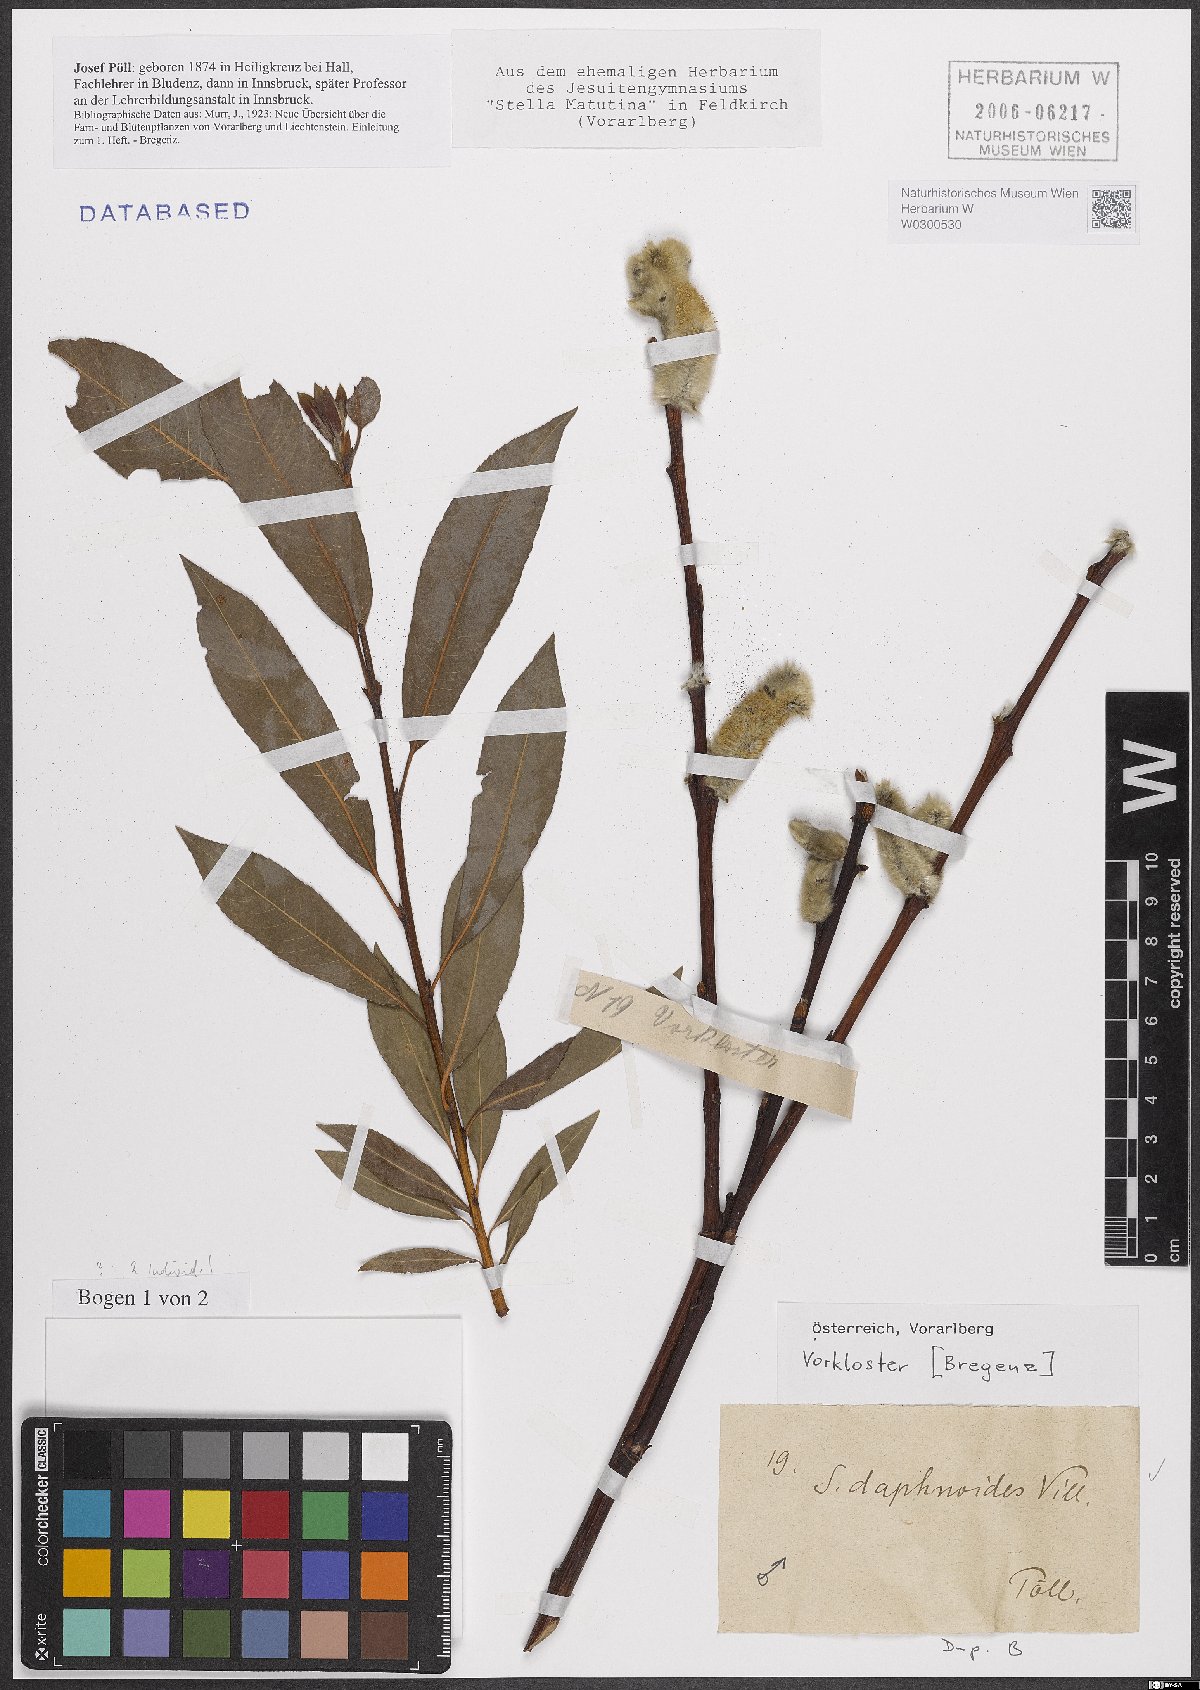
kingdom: Plantae
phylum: Tracheophyta
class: Magnoliopsida
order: Malpighiales
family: Salicaceae
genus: Salix
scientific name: Salix daphnoides
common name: European violet-willow
